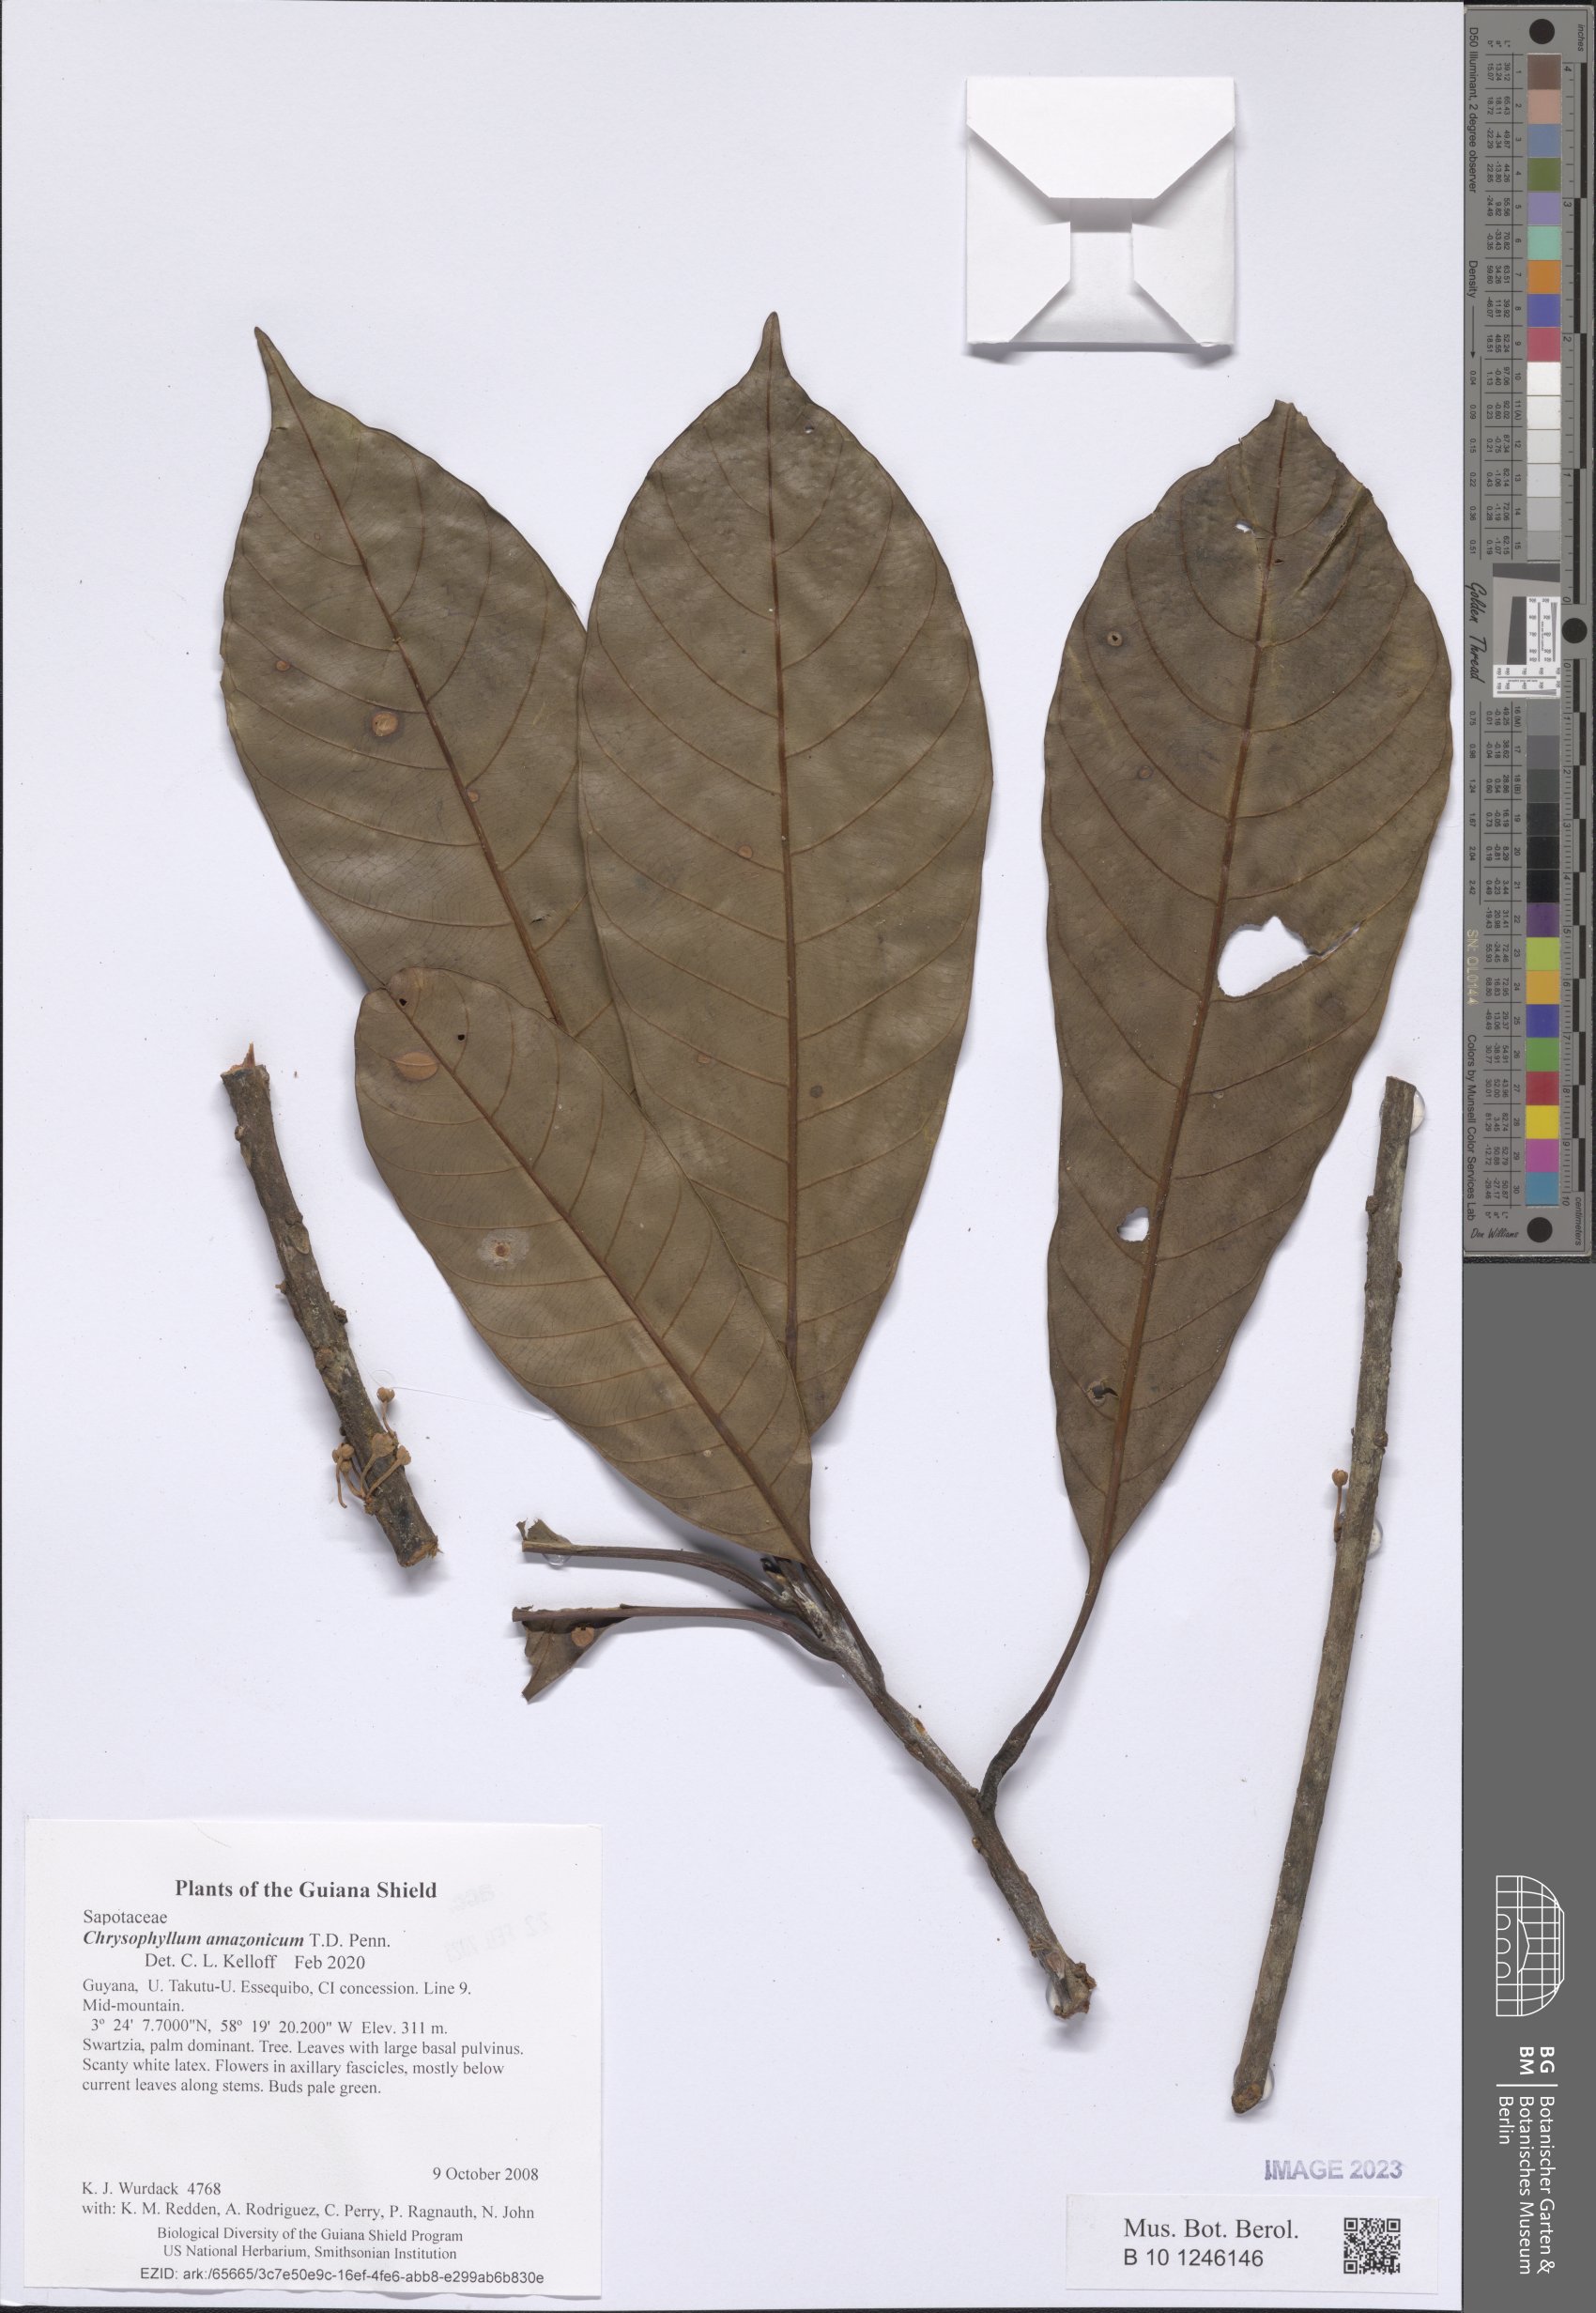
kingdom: Plantae
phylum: Tracheophyta
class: Magnoliopsida
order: Ericales
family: Sapotaceae
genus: Chrysophyllum
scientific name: Chrysophyllum amazonicum
